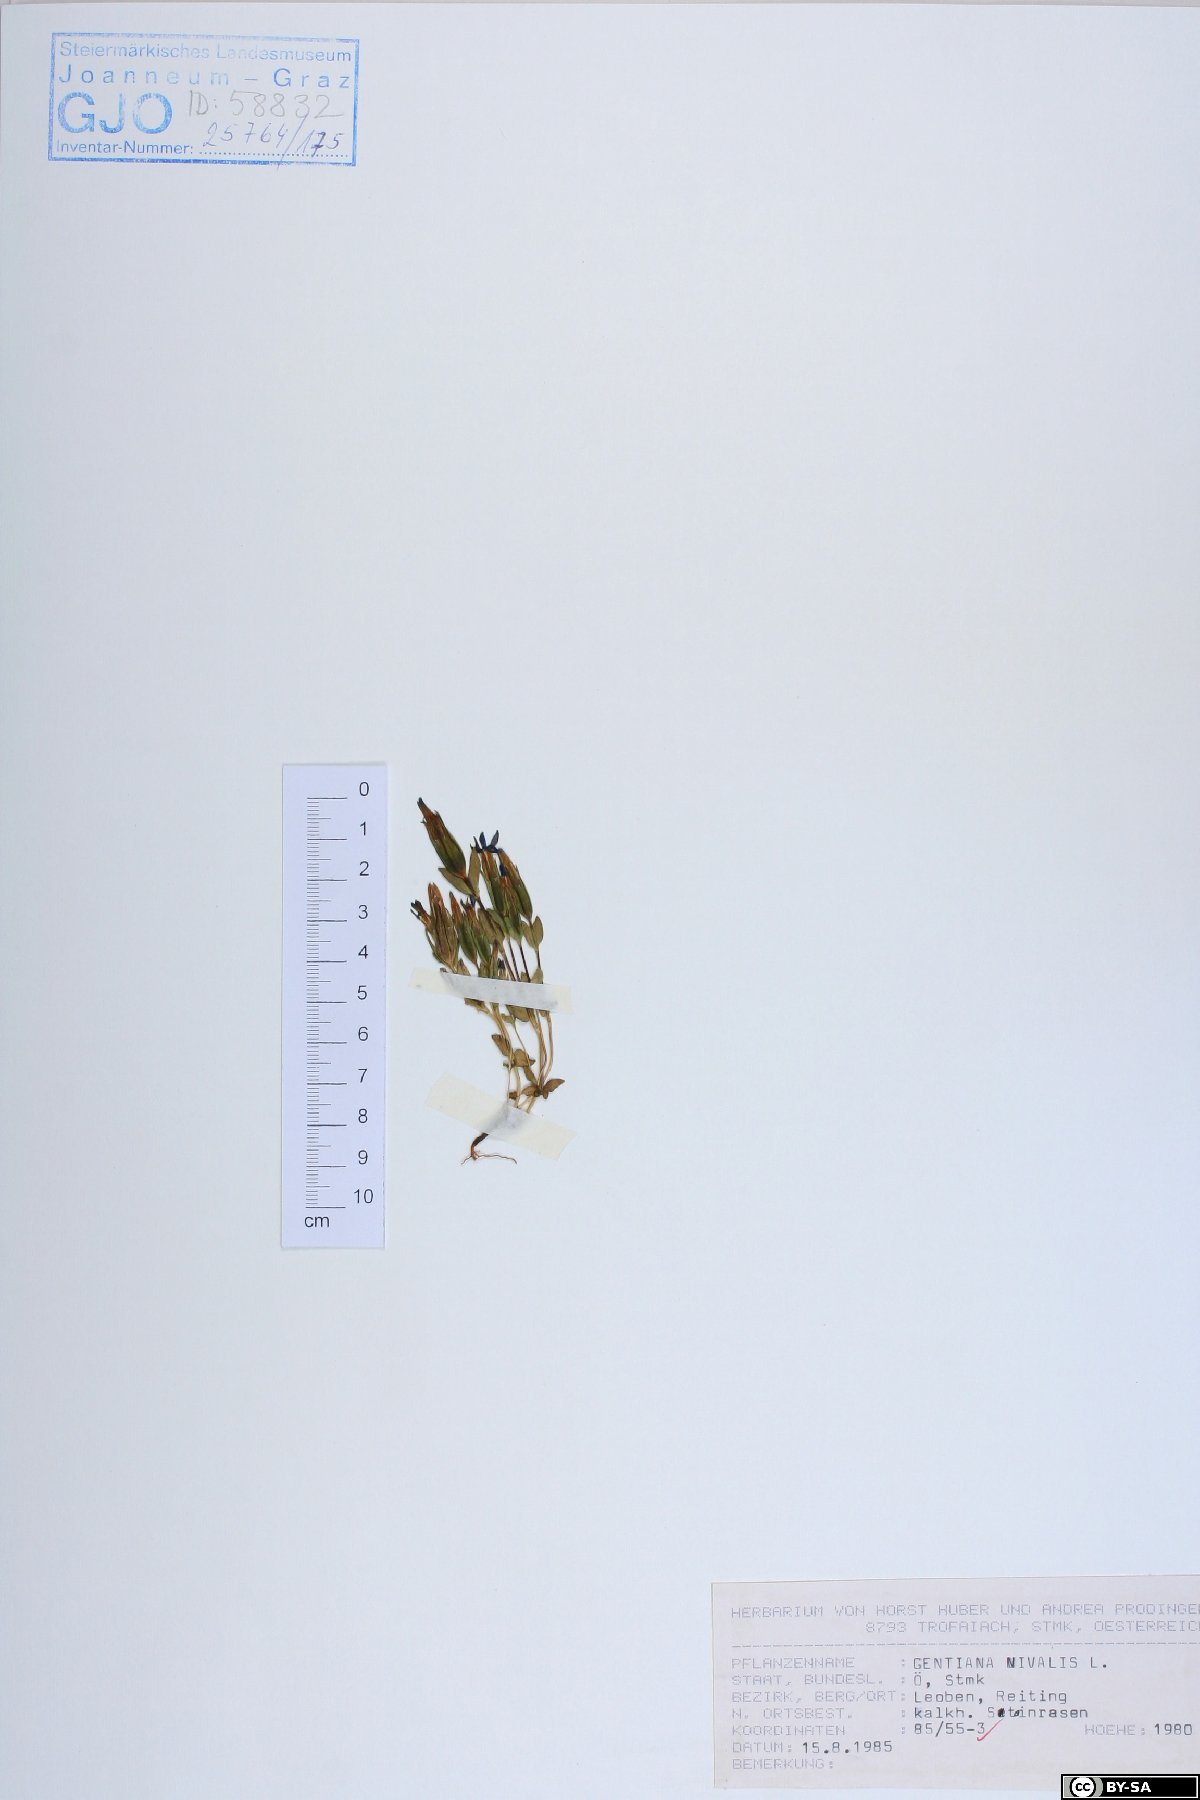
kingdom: Plantae
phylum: Tracheophyta
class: Magnoliopsida
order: Gentianales
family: Gentianaceae
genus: Gentiana
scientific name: Gentiana nivalis
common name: Alpine gentian
